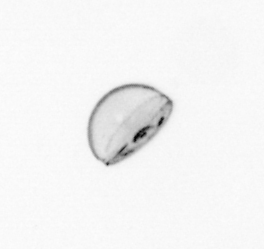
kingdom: Chromista
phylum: Ochrophyta
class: Bacillariophyceae
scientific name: Bacillariophyceae
